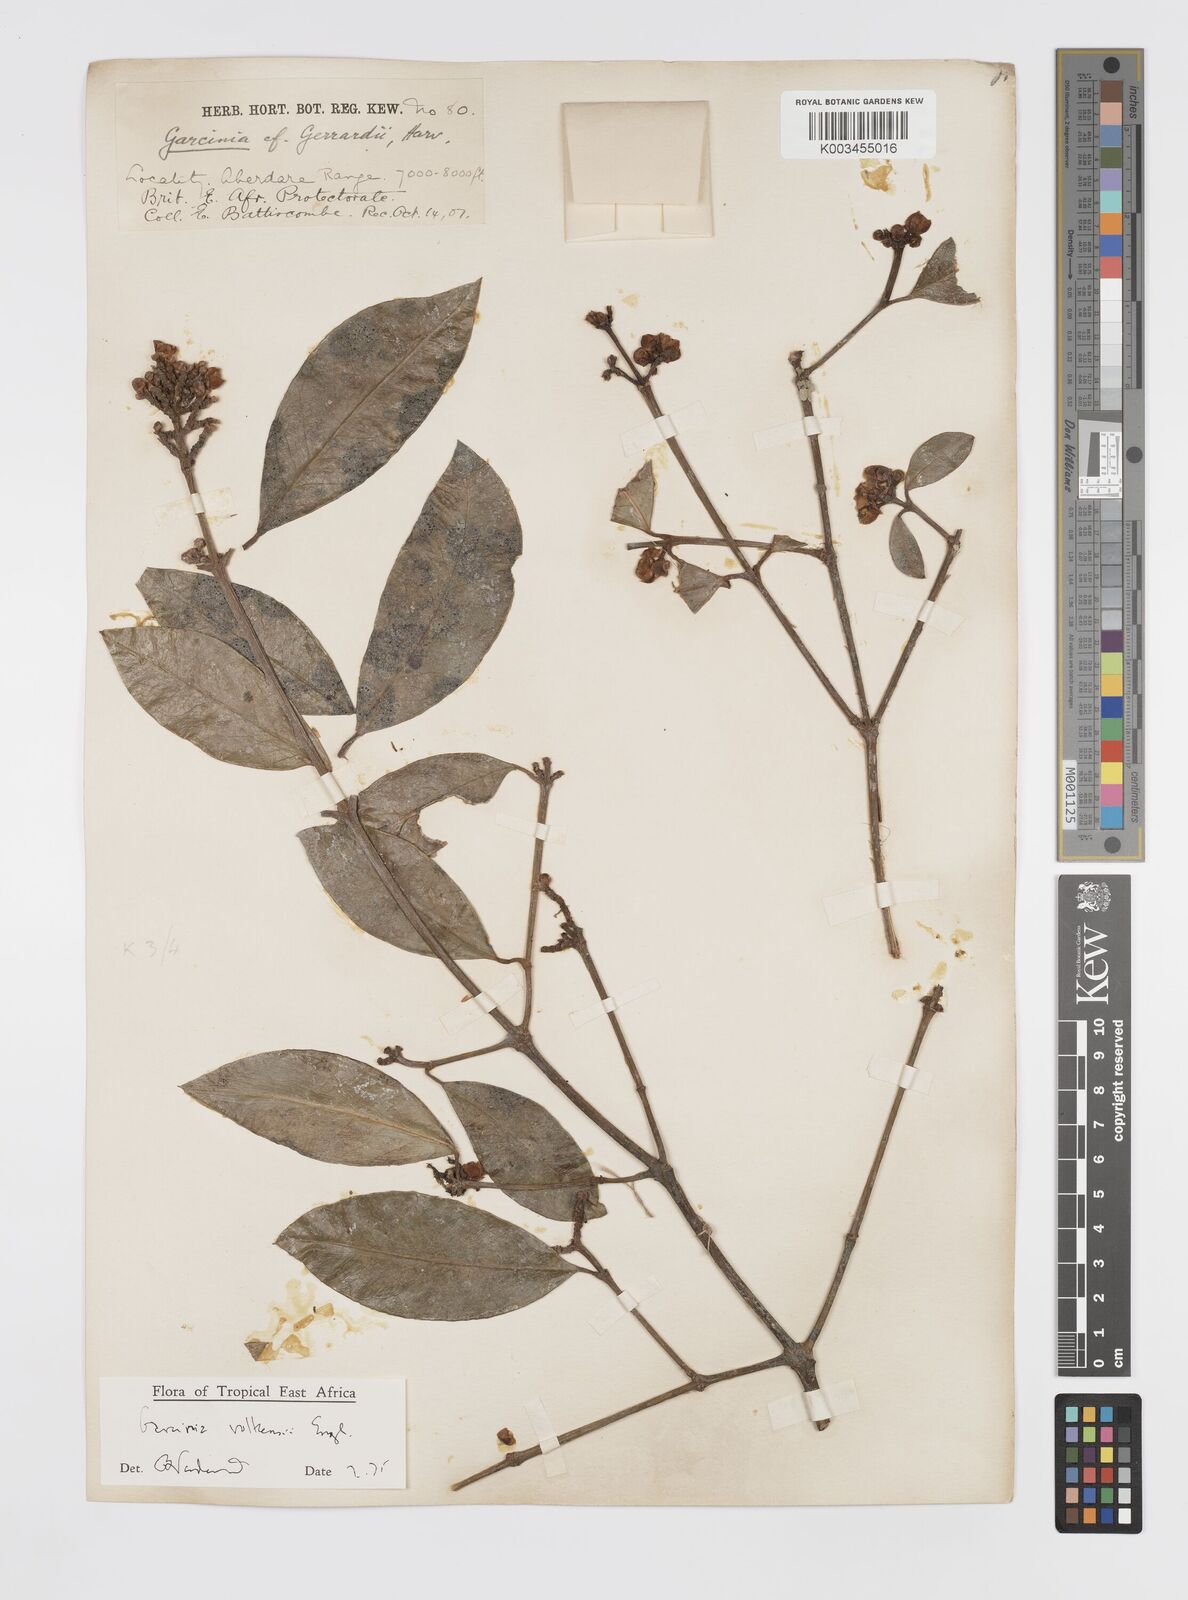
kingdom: Plantae
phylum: Tracheophyta
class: Magnoliopsida
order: Malpighiales
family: Clusiaceae
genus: Garcinia
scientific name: Garcinia volkensii
